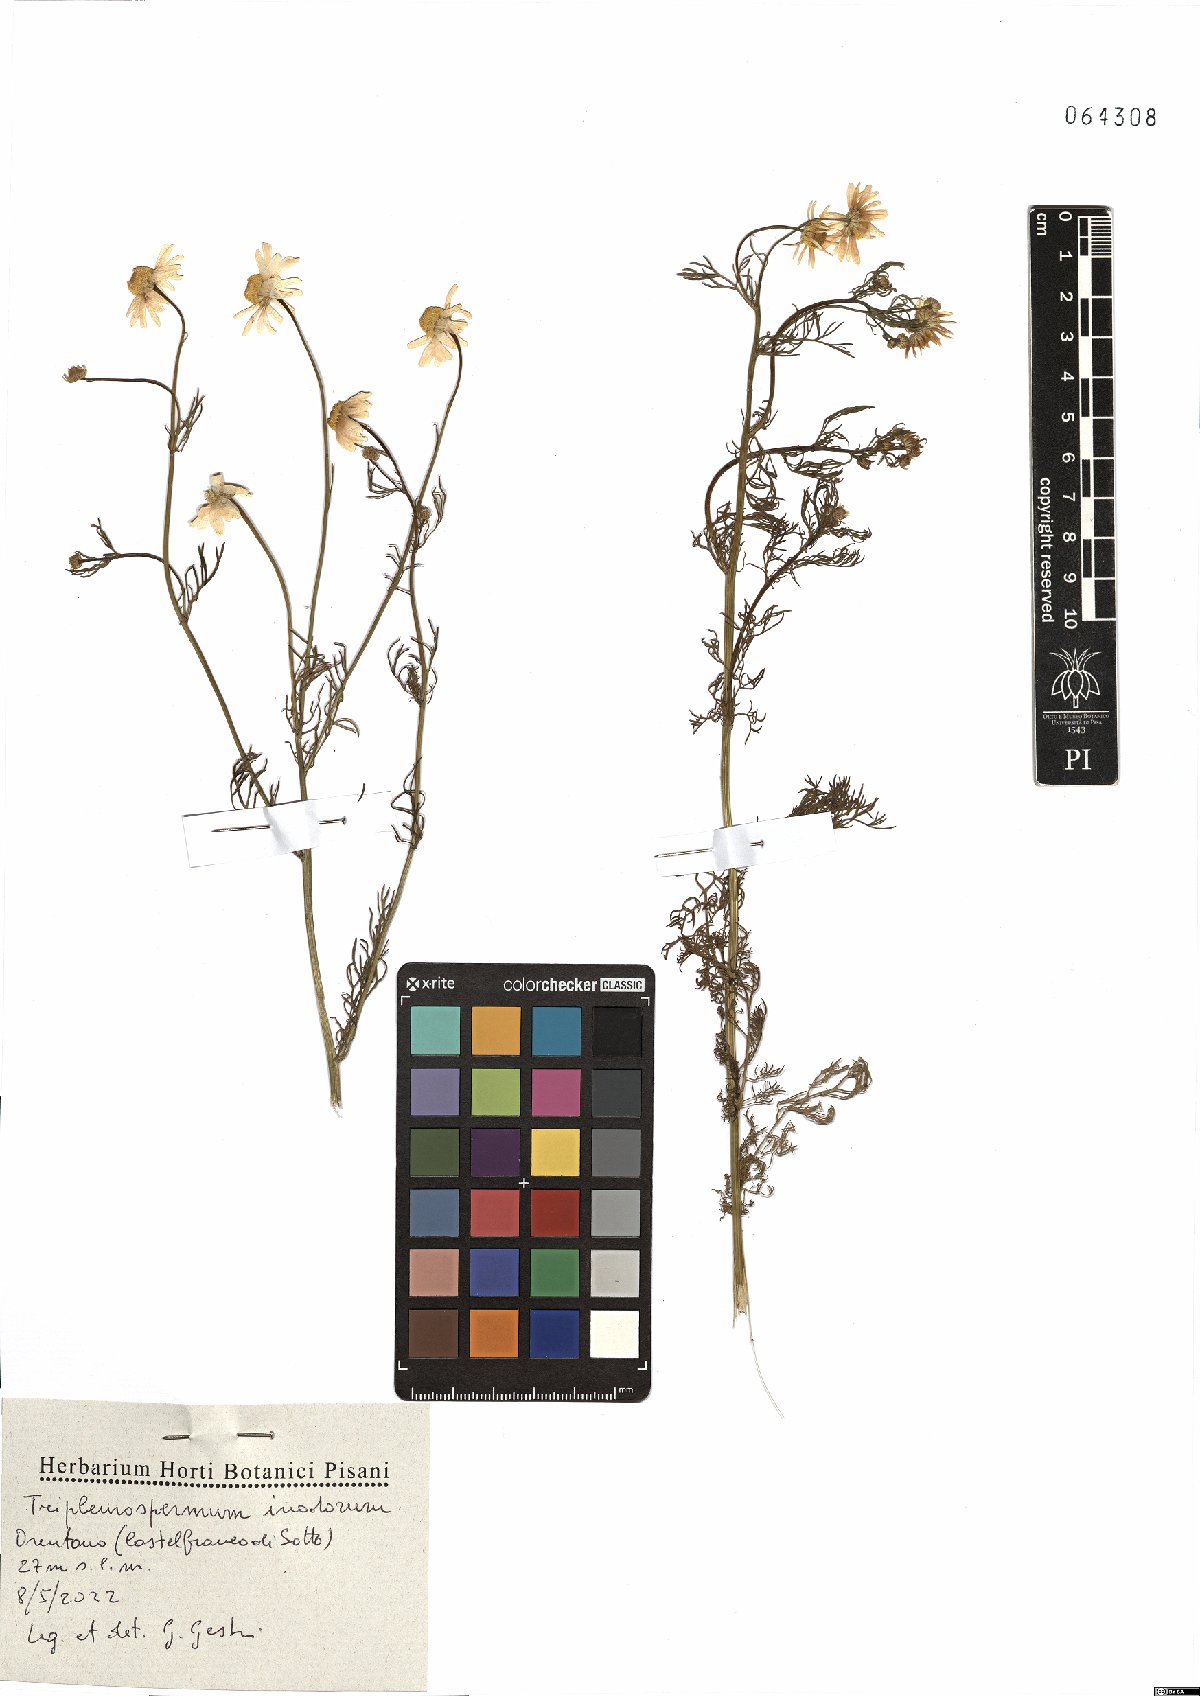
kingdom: Plantae
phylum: Tracheophyta
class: Magnoliopsida
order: Asterales
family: Asteraceae
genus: Tripleurospermum
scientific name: Tripleurospermum inodorum
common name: Scentless mayweed
